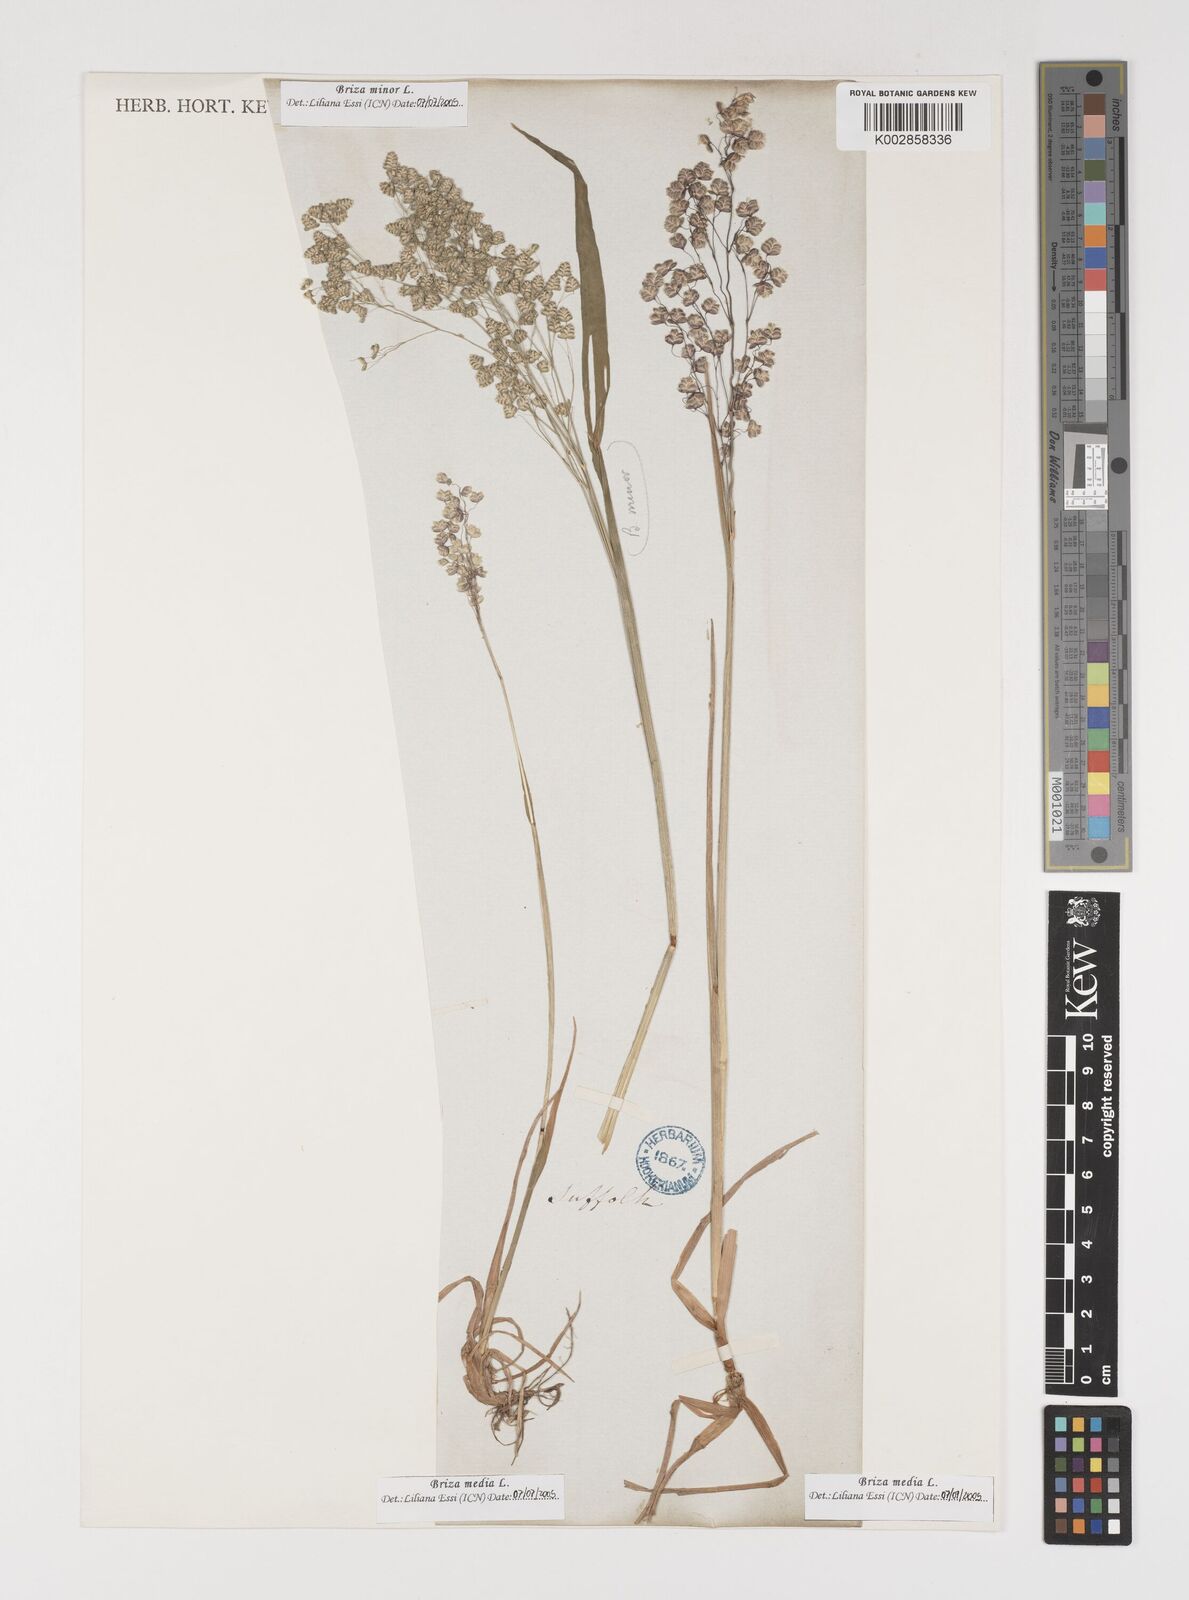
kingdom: Plantae
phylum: Tracheophyta
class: Liliopsida
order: Poales
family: Poaceae
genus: Briza
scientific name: Briza media
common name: Quaking grass
